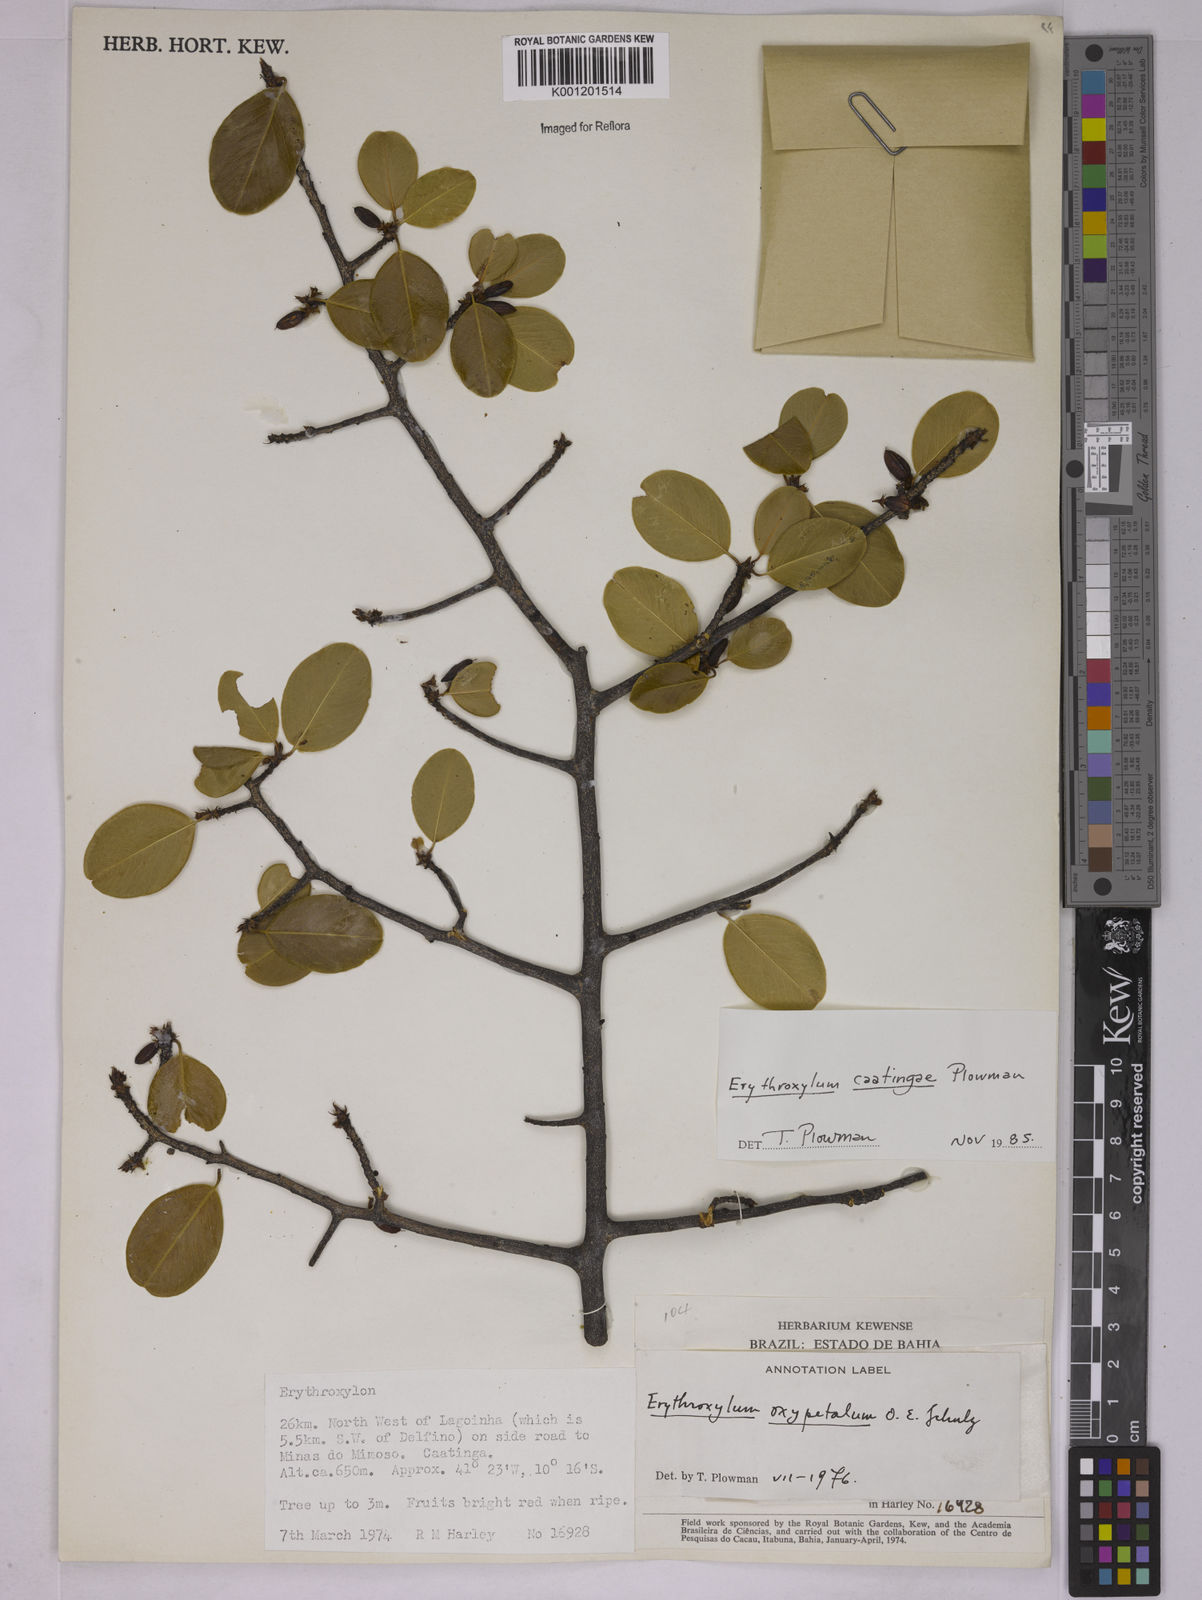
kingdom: Plantae
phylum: Tracheophyta
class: Magnoliopsida
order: Malpighiales
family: Erythroxylaceae
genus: Erythroxylum
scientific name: Erythroxylum caatingae
